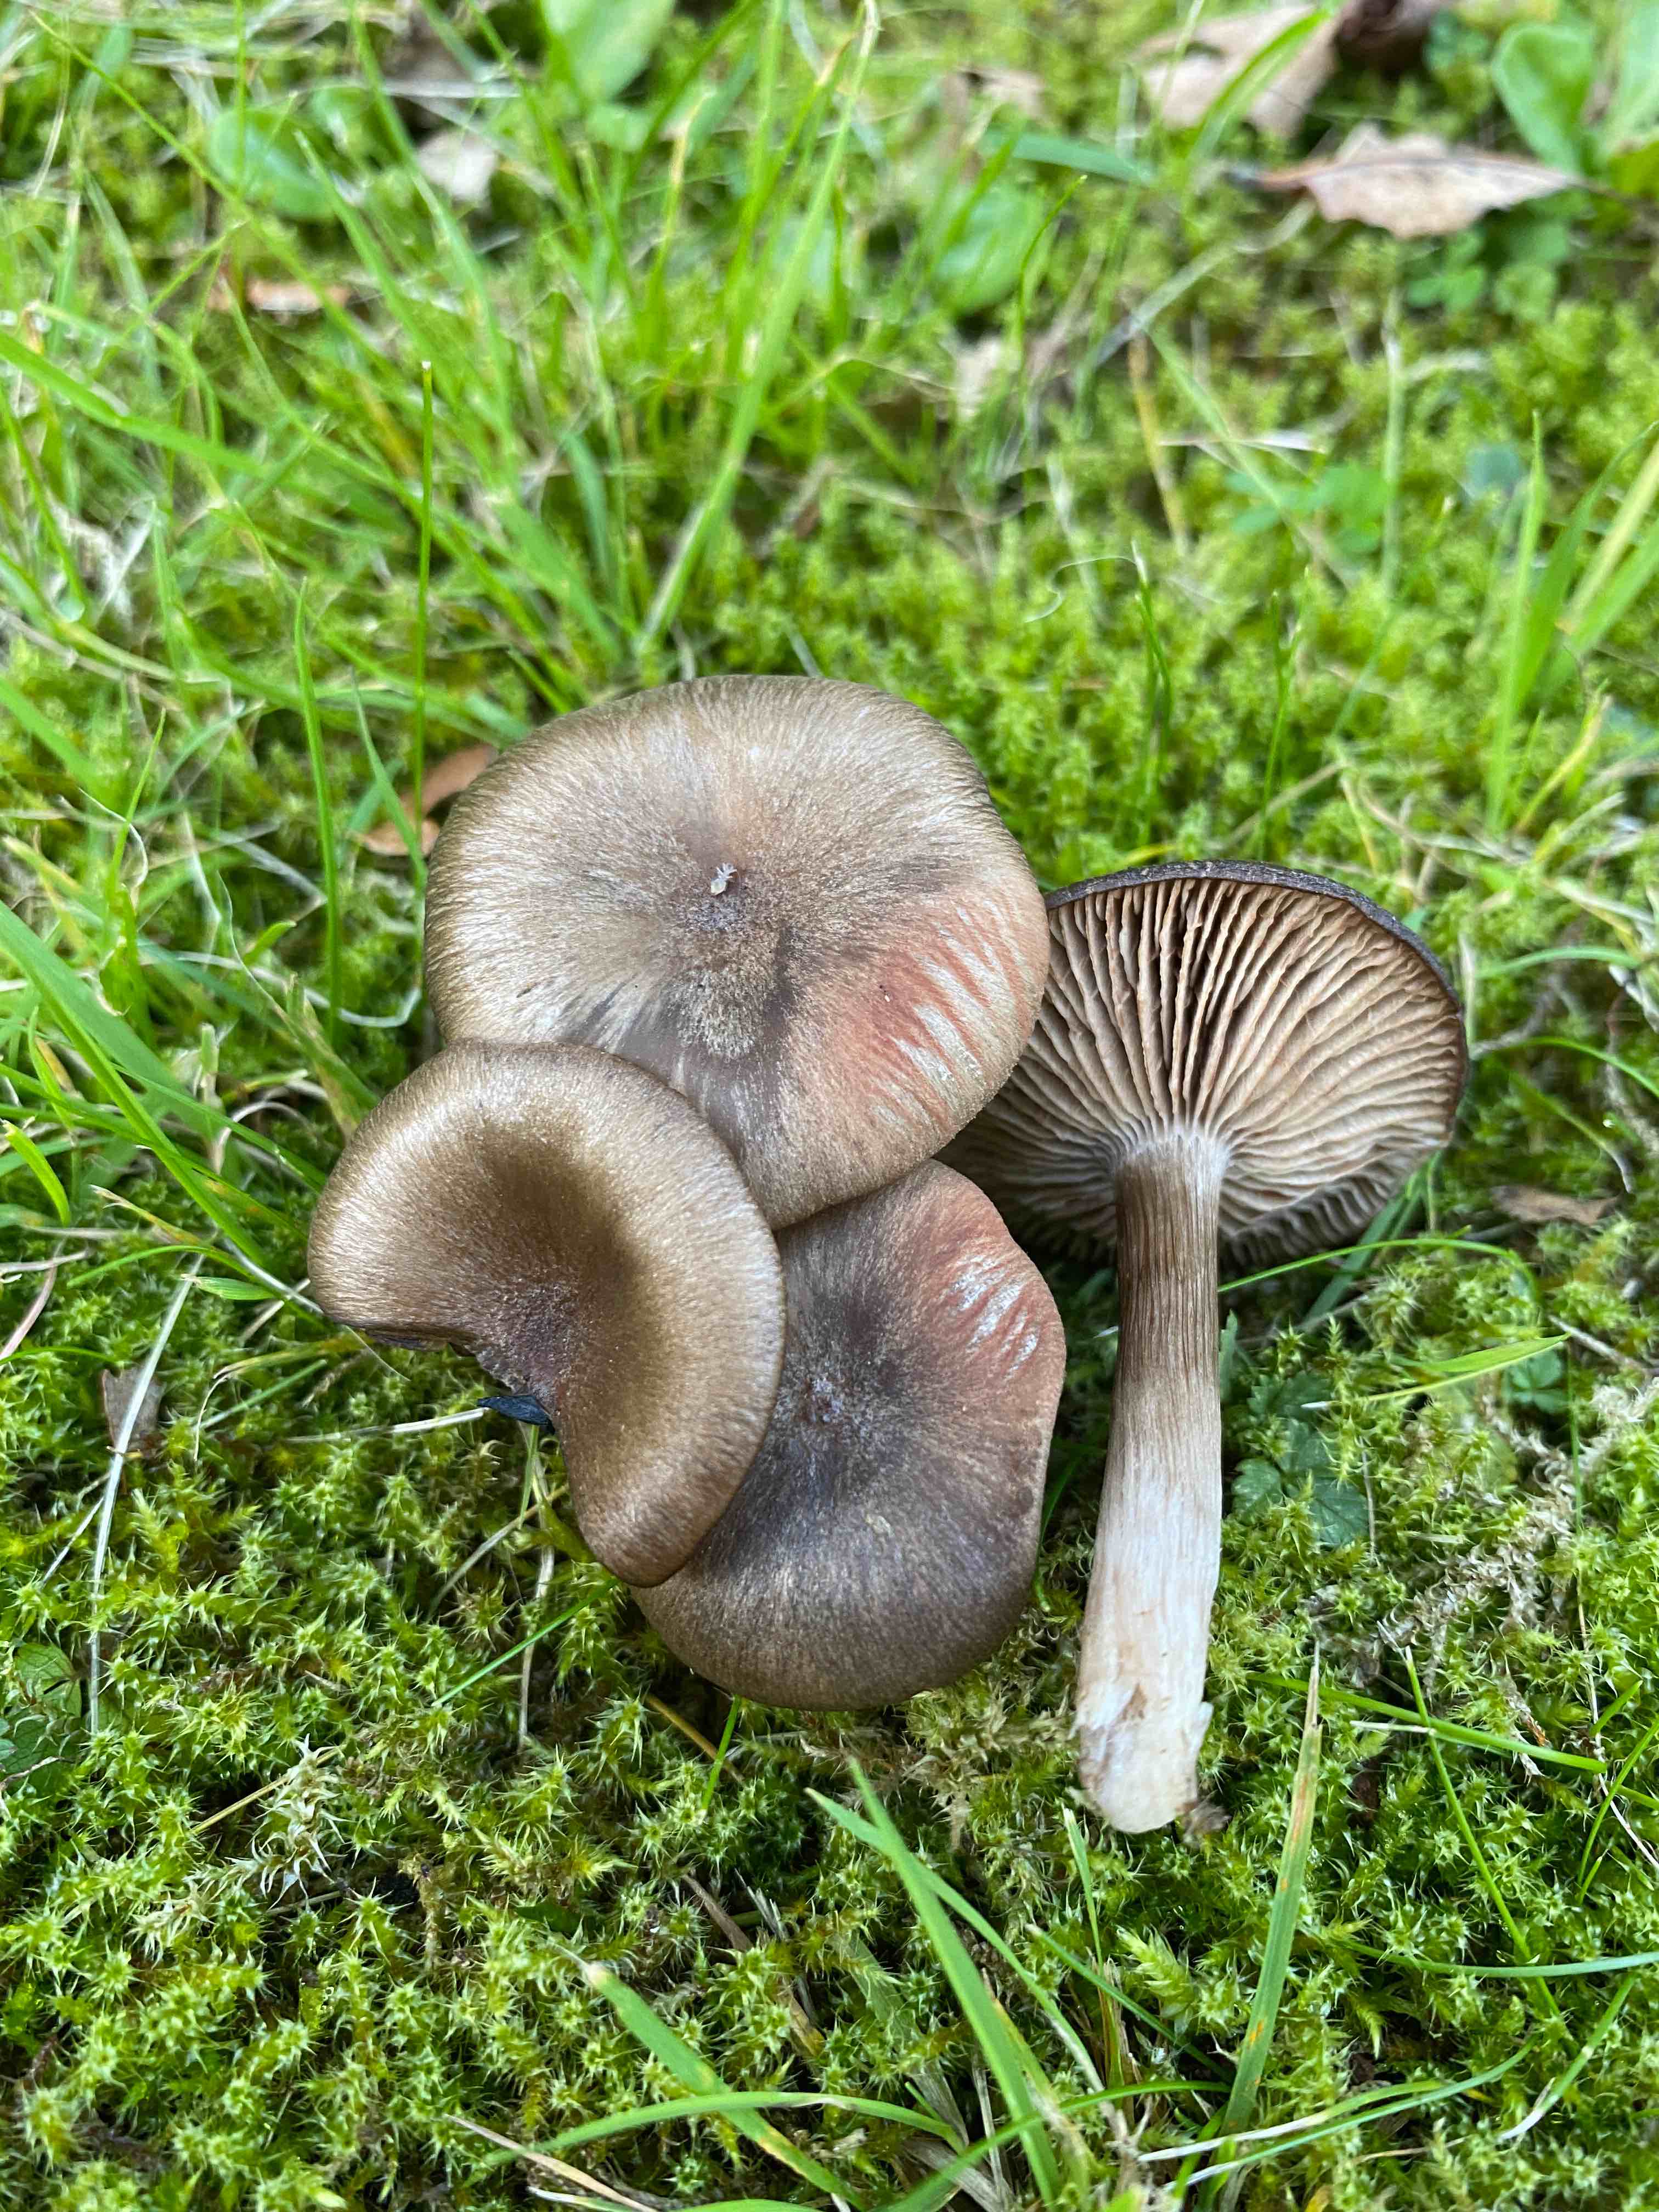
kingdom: Fungi
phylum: Basidiomycota
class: Agaricomycetes
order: Agaricales
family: Entolomataceae
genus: Entoloma
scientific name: Entoloma
